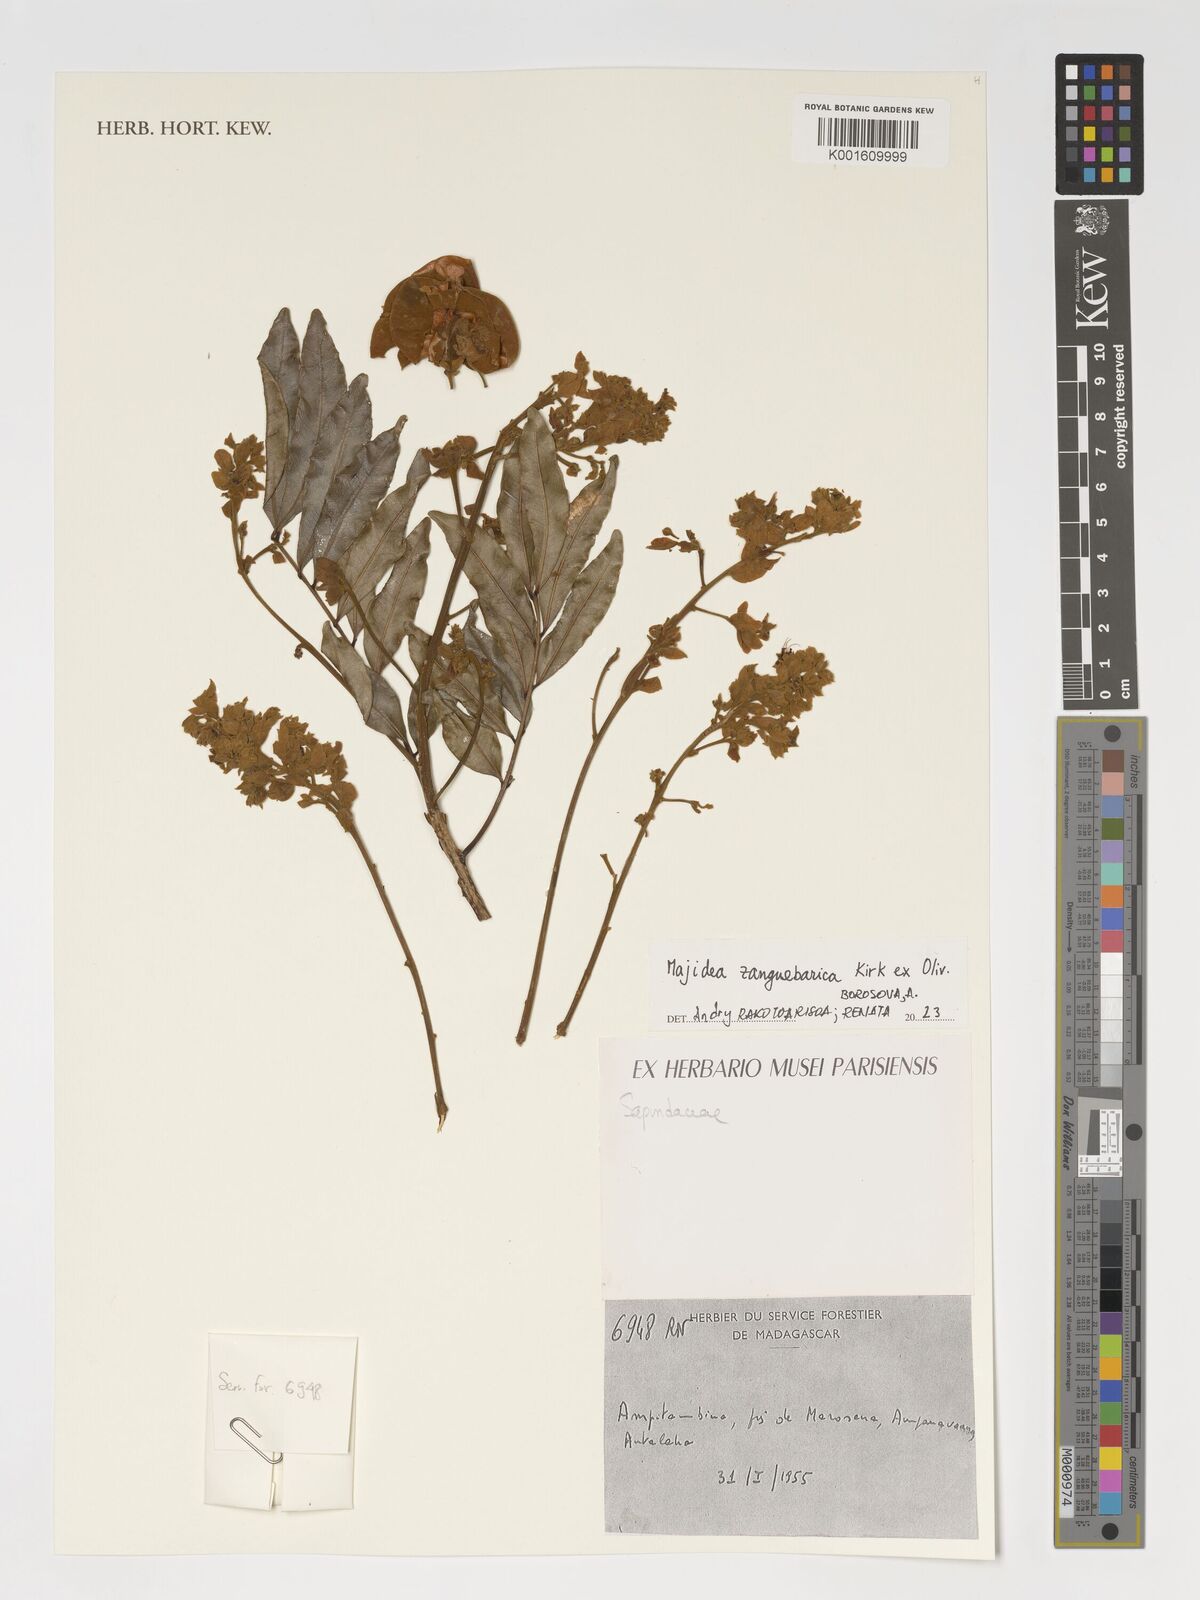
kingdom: Plantae
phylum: Tracheophyta
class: Magnoliopsida
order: Sapindales
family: Sapindaceae
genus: Majidea
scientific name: Majidea zanguebarica
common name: Velvet-seed
